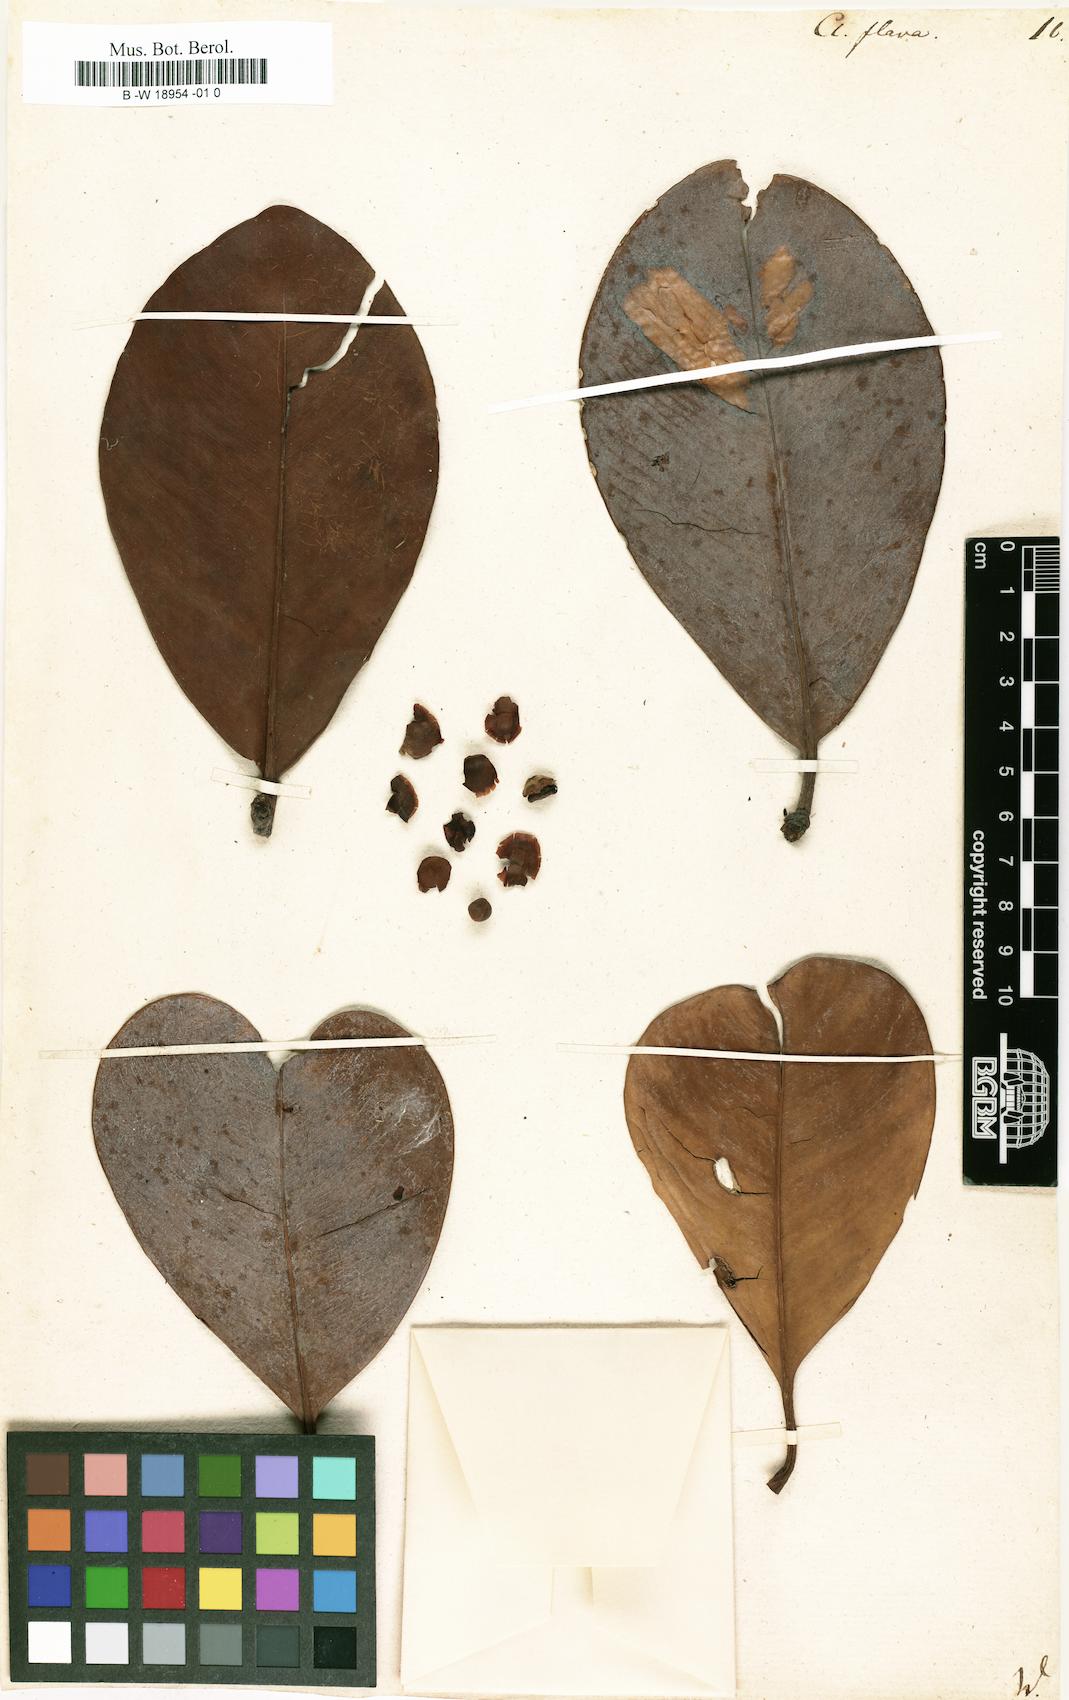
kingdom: Plantae
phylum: Tracheophyta
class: Magnoliopsida
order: Malpighiales
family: Clusiaceae
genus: Clusia
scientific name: Clusia flava
